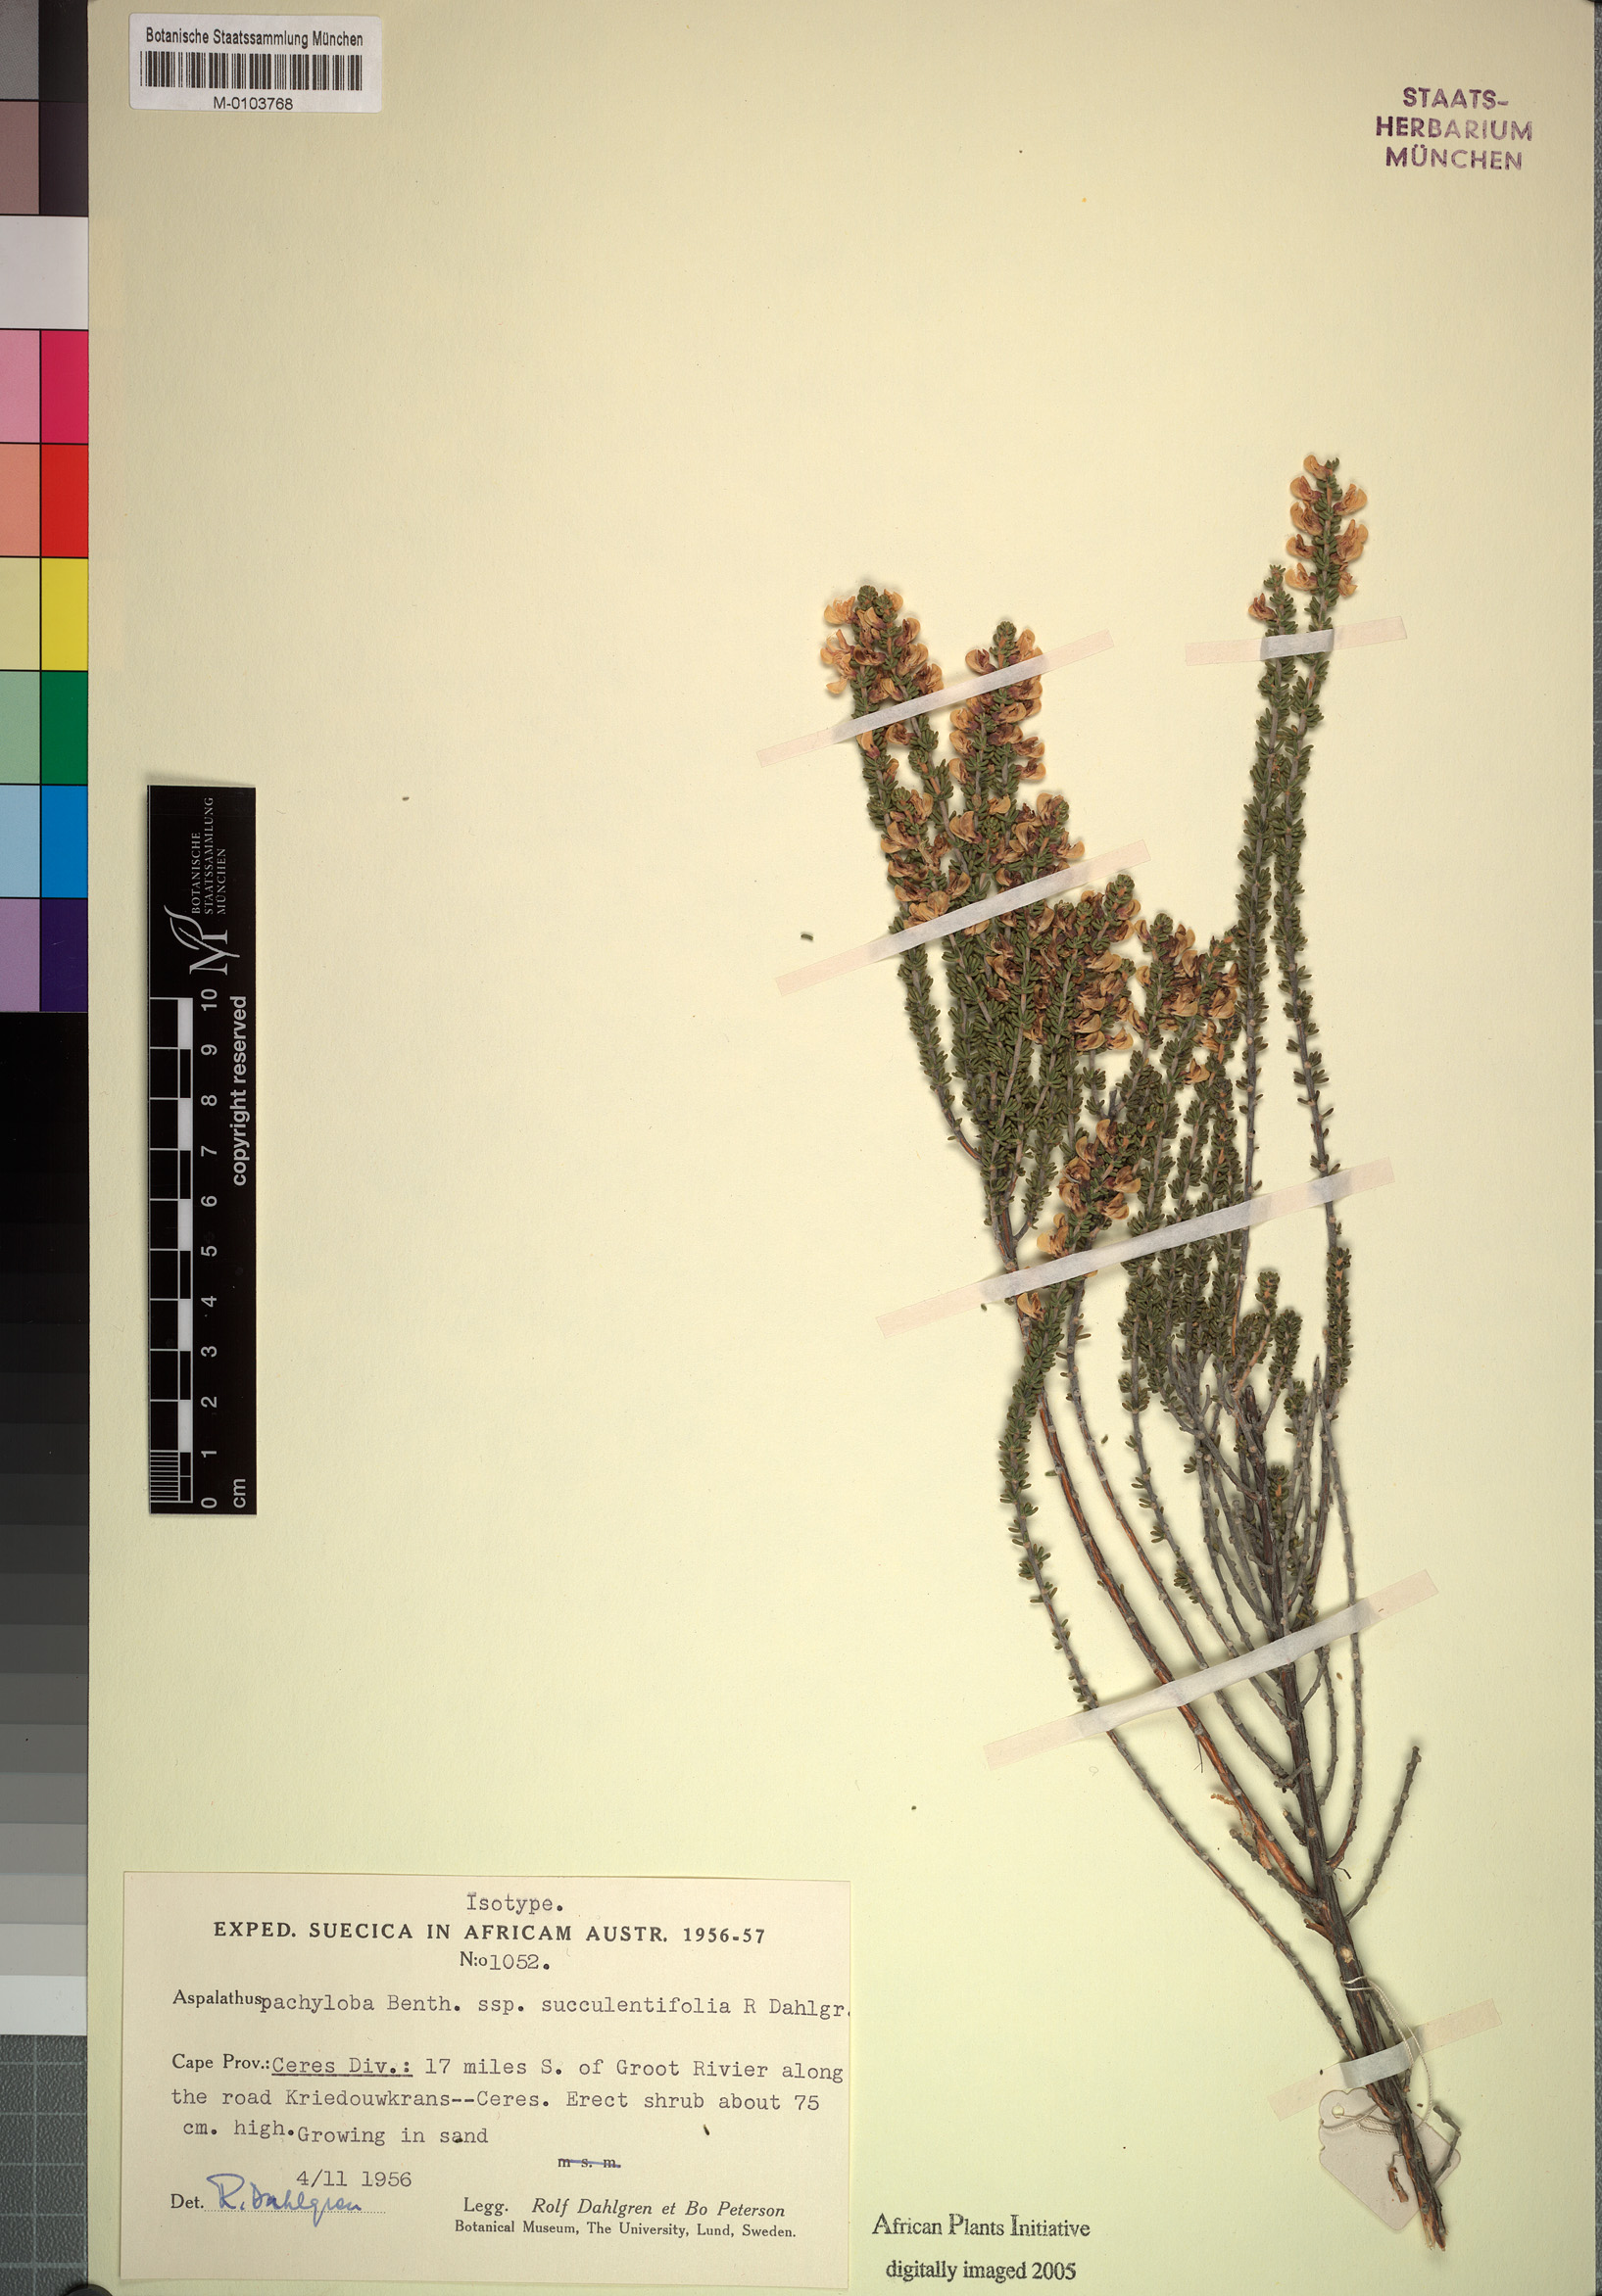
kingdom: Plantae
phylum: Tracheophyta
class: Magnoliopsida
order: Fabales
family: Fabaceae
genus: Aspalathus
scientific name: Aspalathus pachyloba
